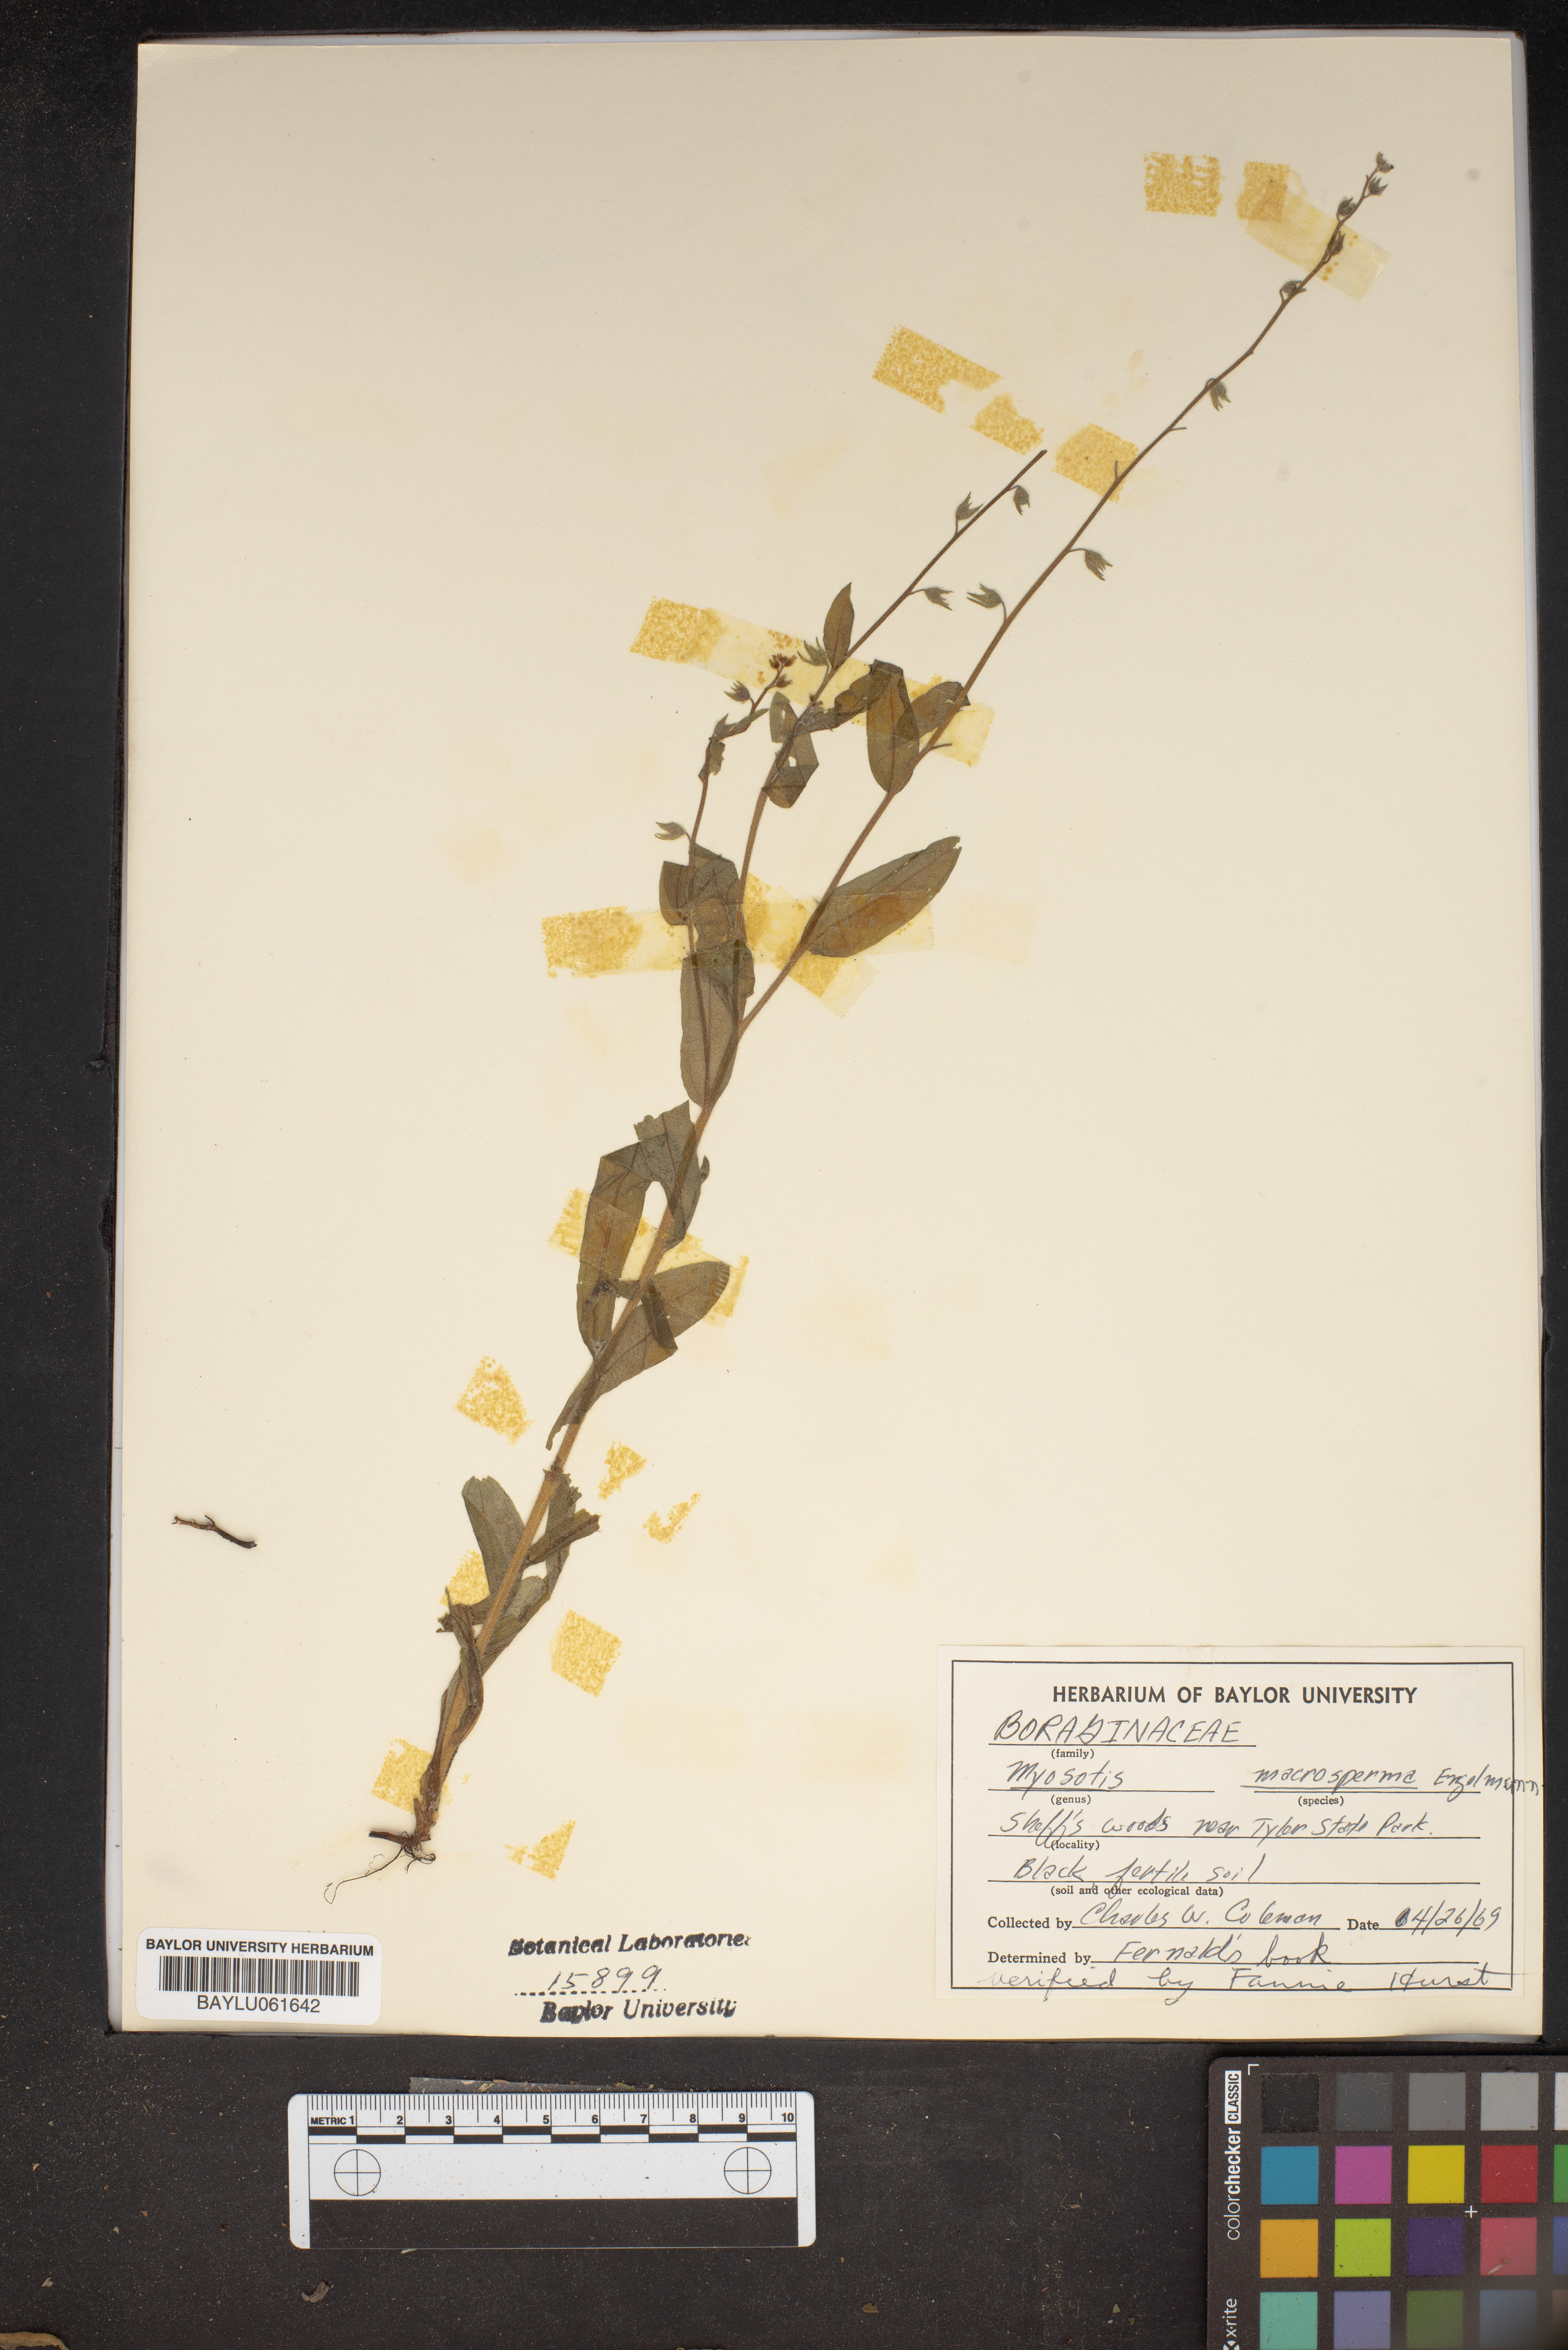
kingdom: Plantae
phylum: Tracheophyta
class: Magnoliopsida
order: Boraginales
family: Boraginaceae
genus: Myosotis
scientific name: Myosotis macrosperma
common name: Large-seed forget-me-not
